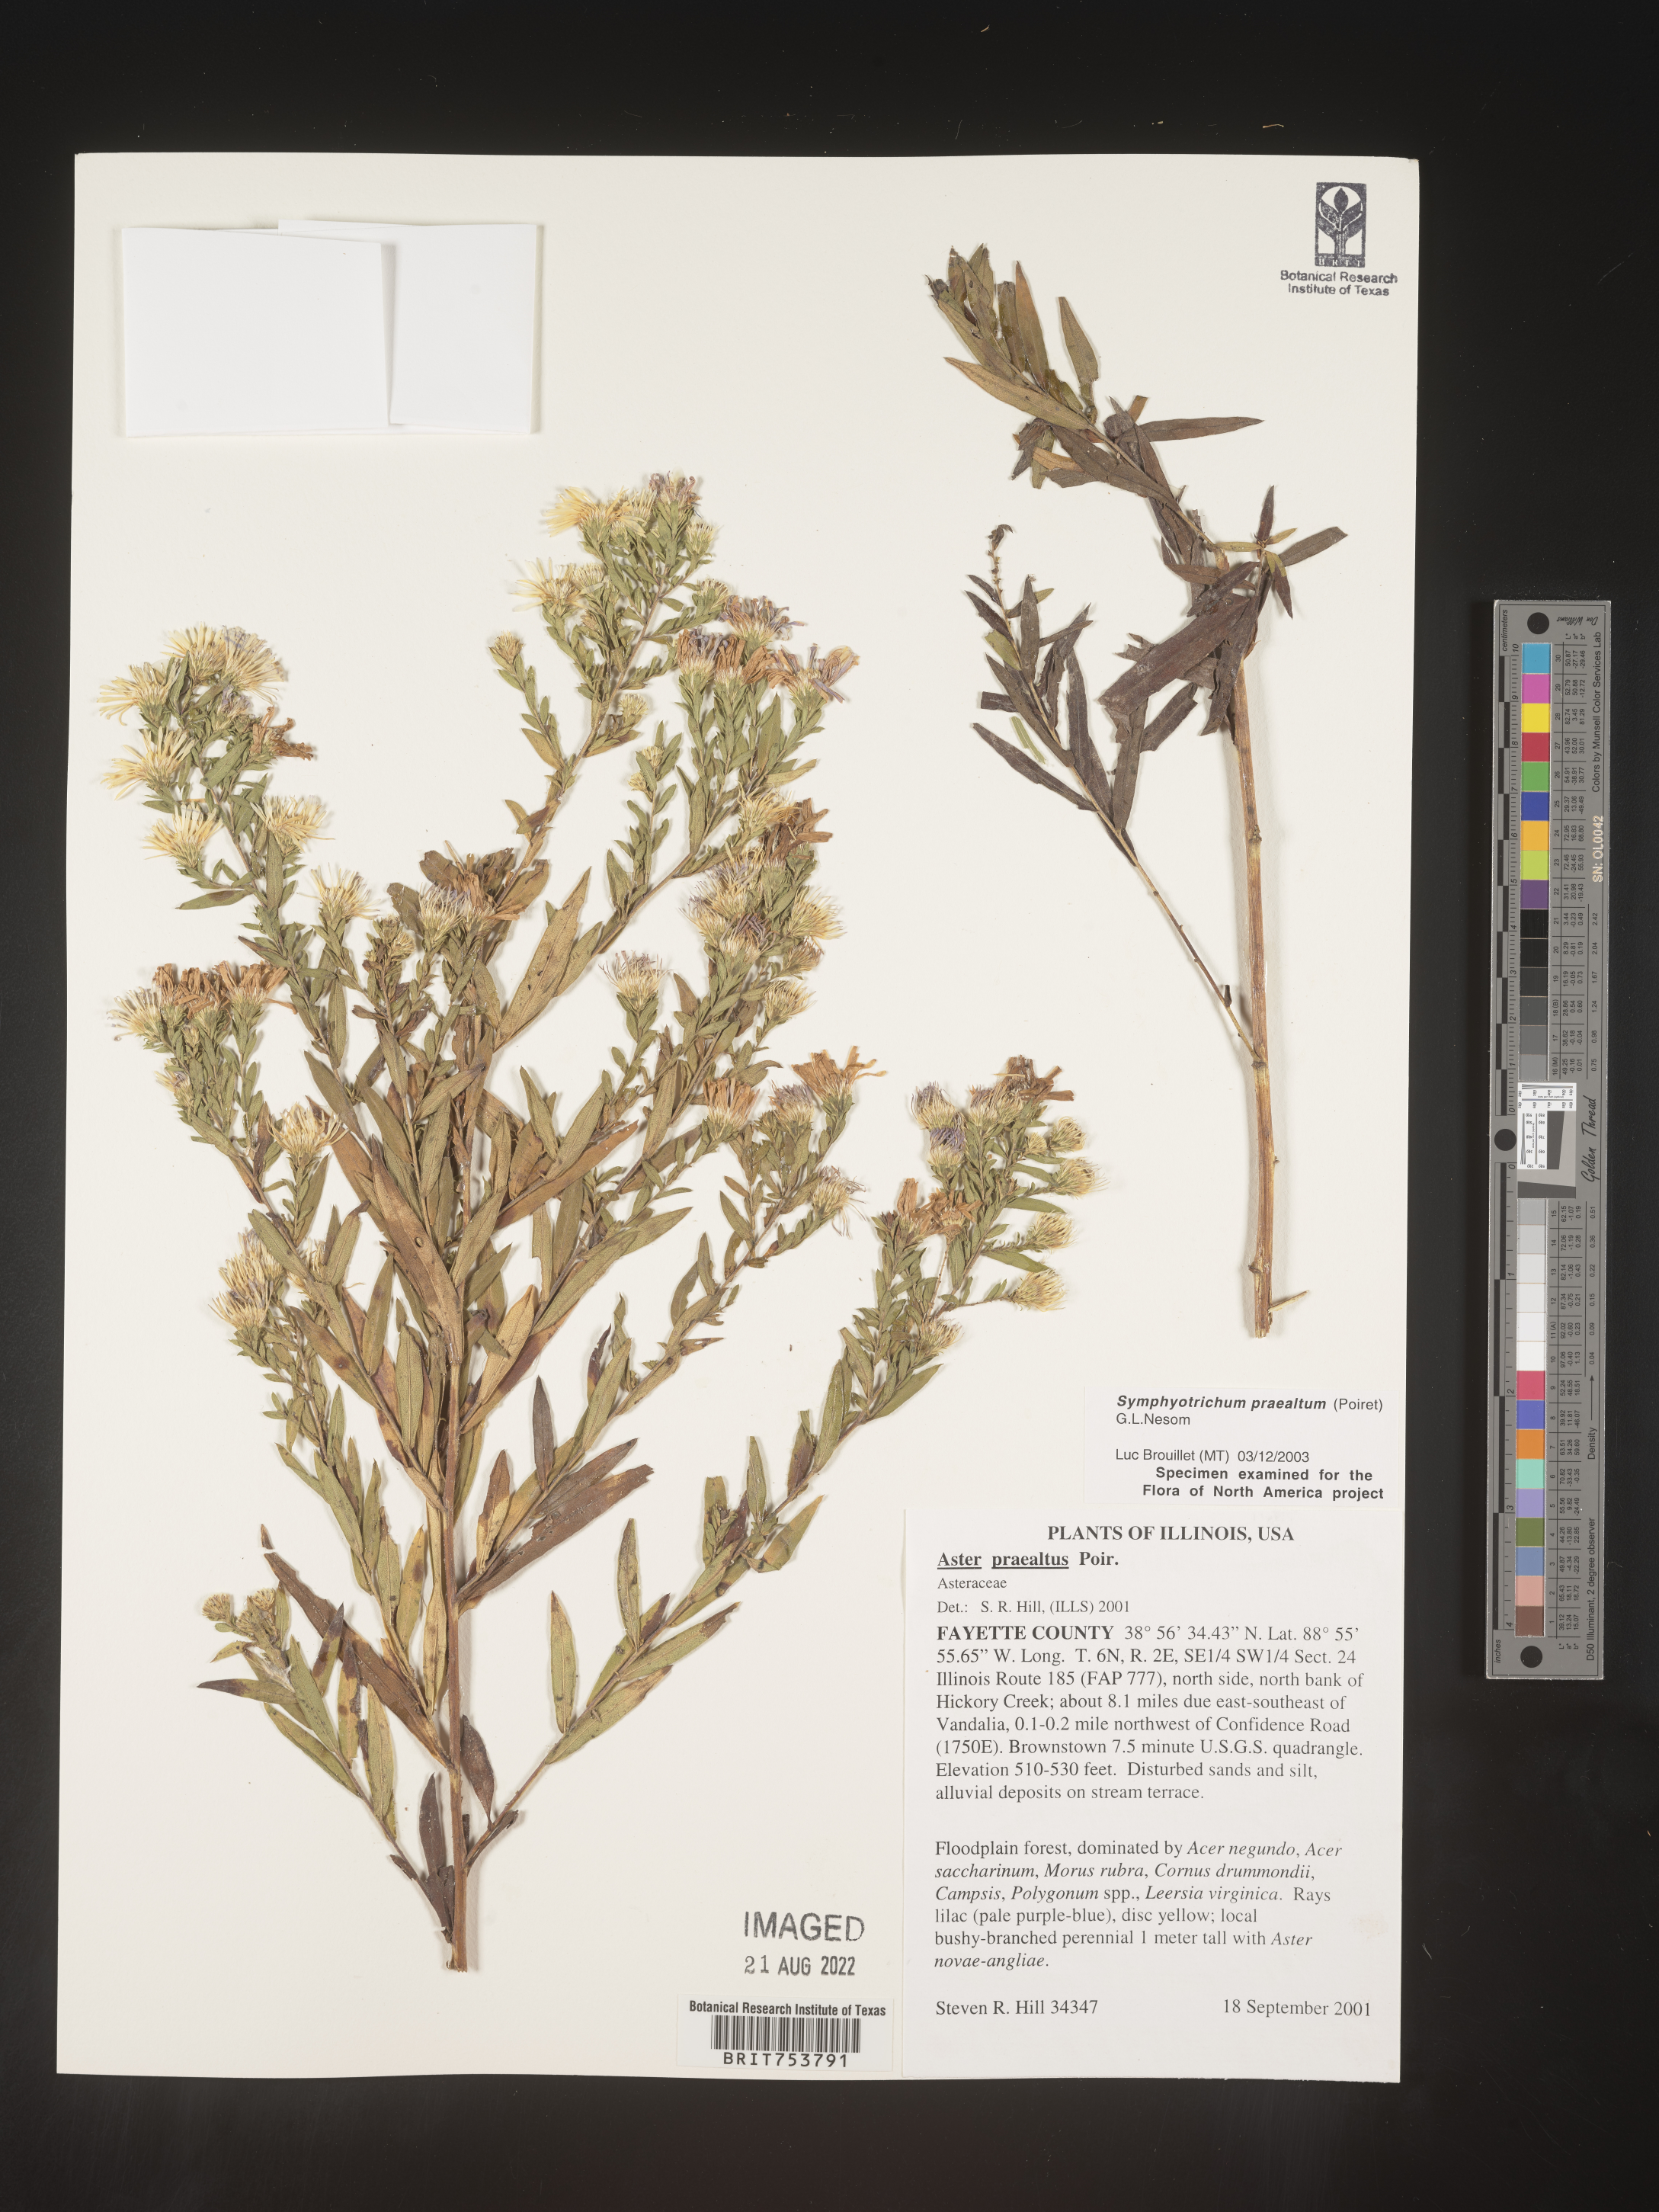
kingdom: Plantae
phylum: Tracheophyta
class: Magnoliopsida
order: Asterales
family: Asteraceae
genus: Symphyotrichum
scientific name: Symphyotrichum praealtum
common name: Willow aster
